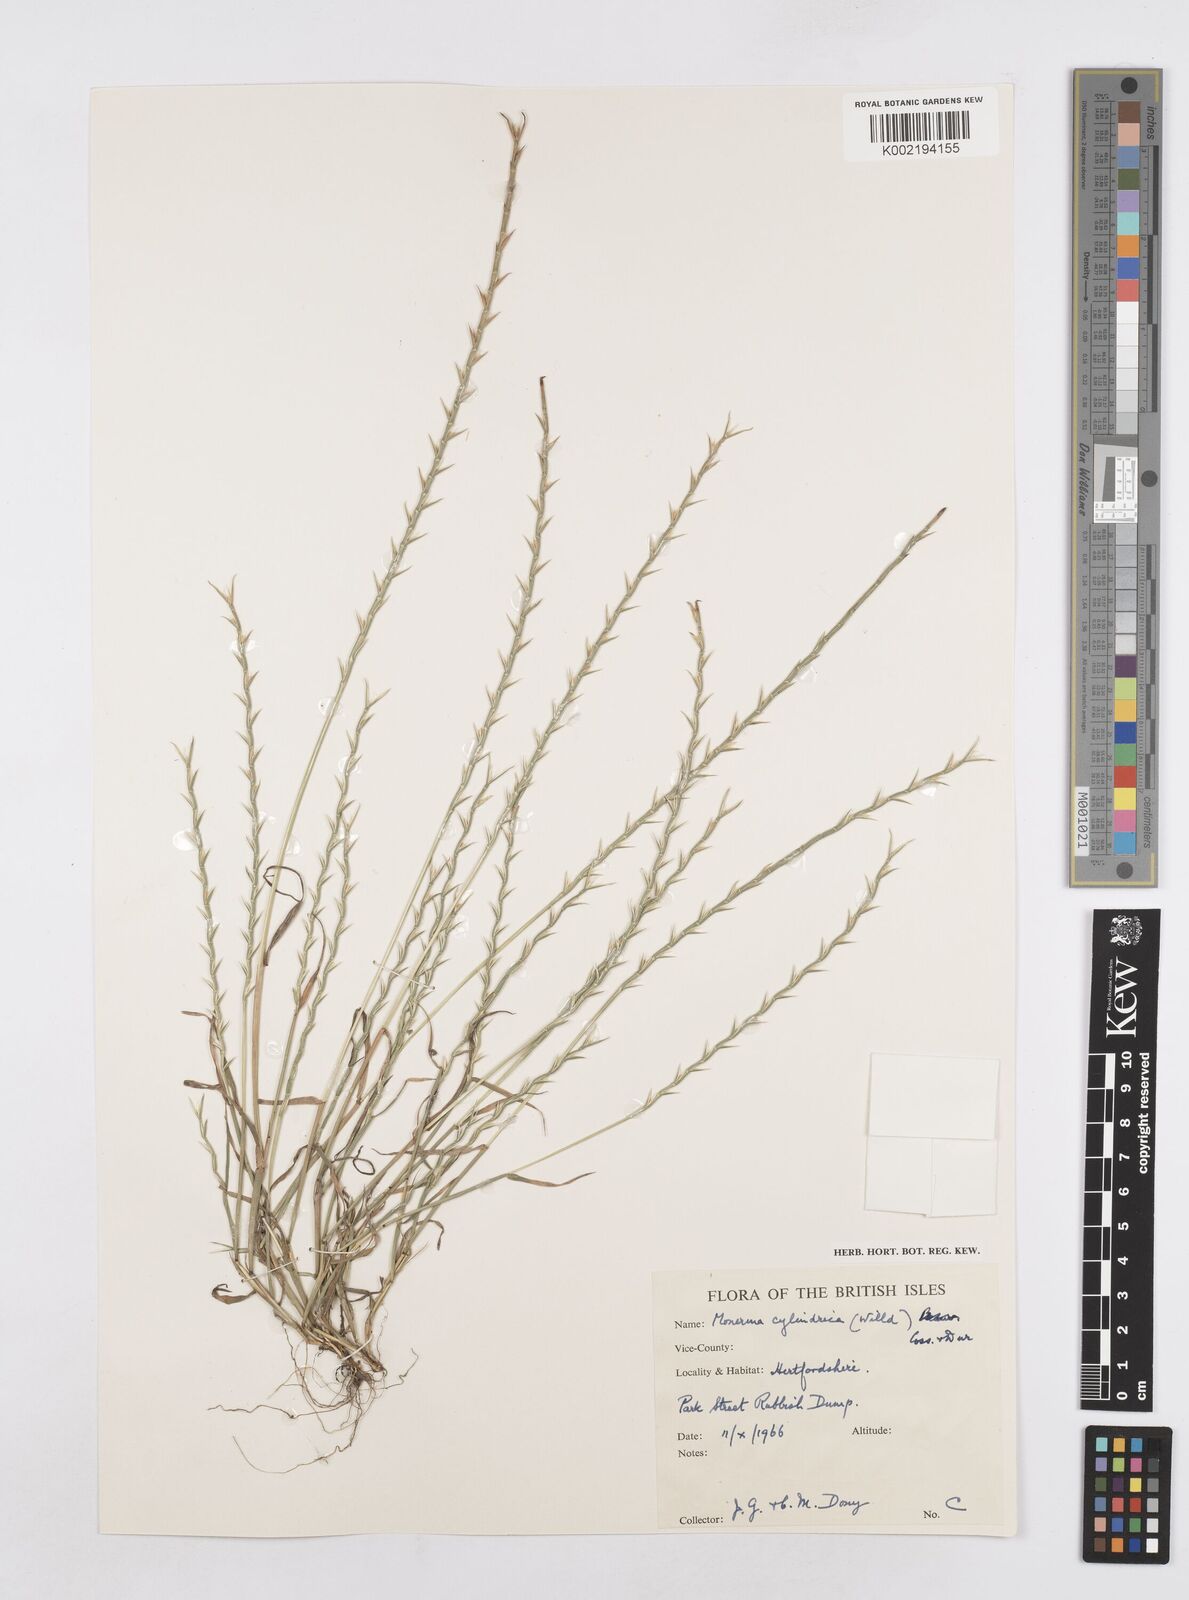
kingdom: Plantae
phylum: Tracheophyta
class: Liliopsida
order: Poales
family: Poaceae
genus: Parapholis
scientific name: Parapholis cylindrica
